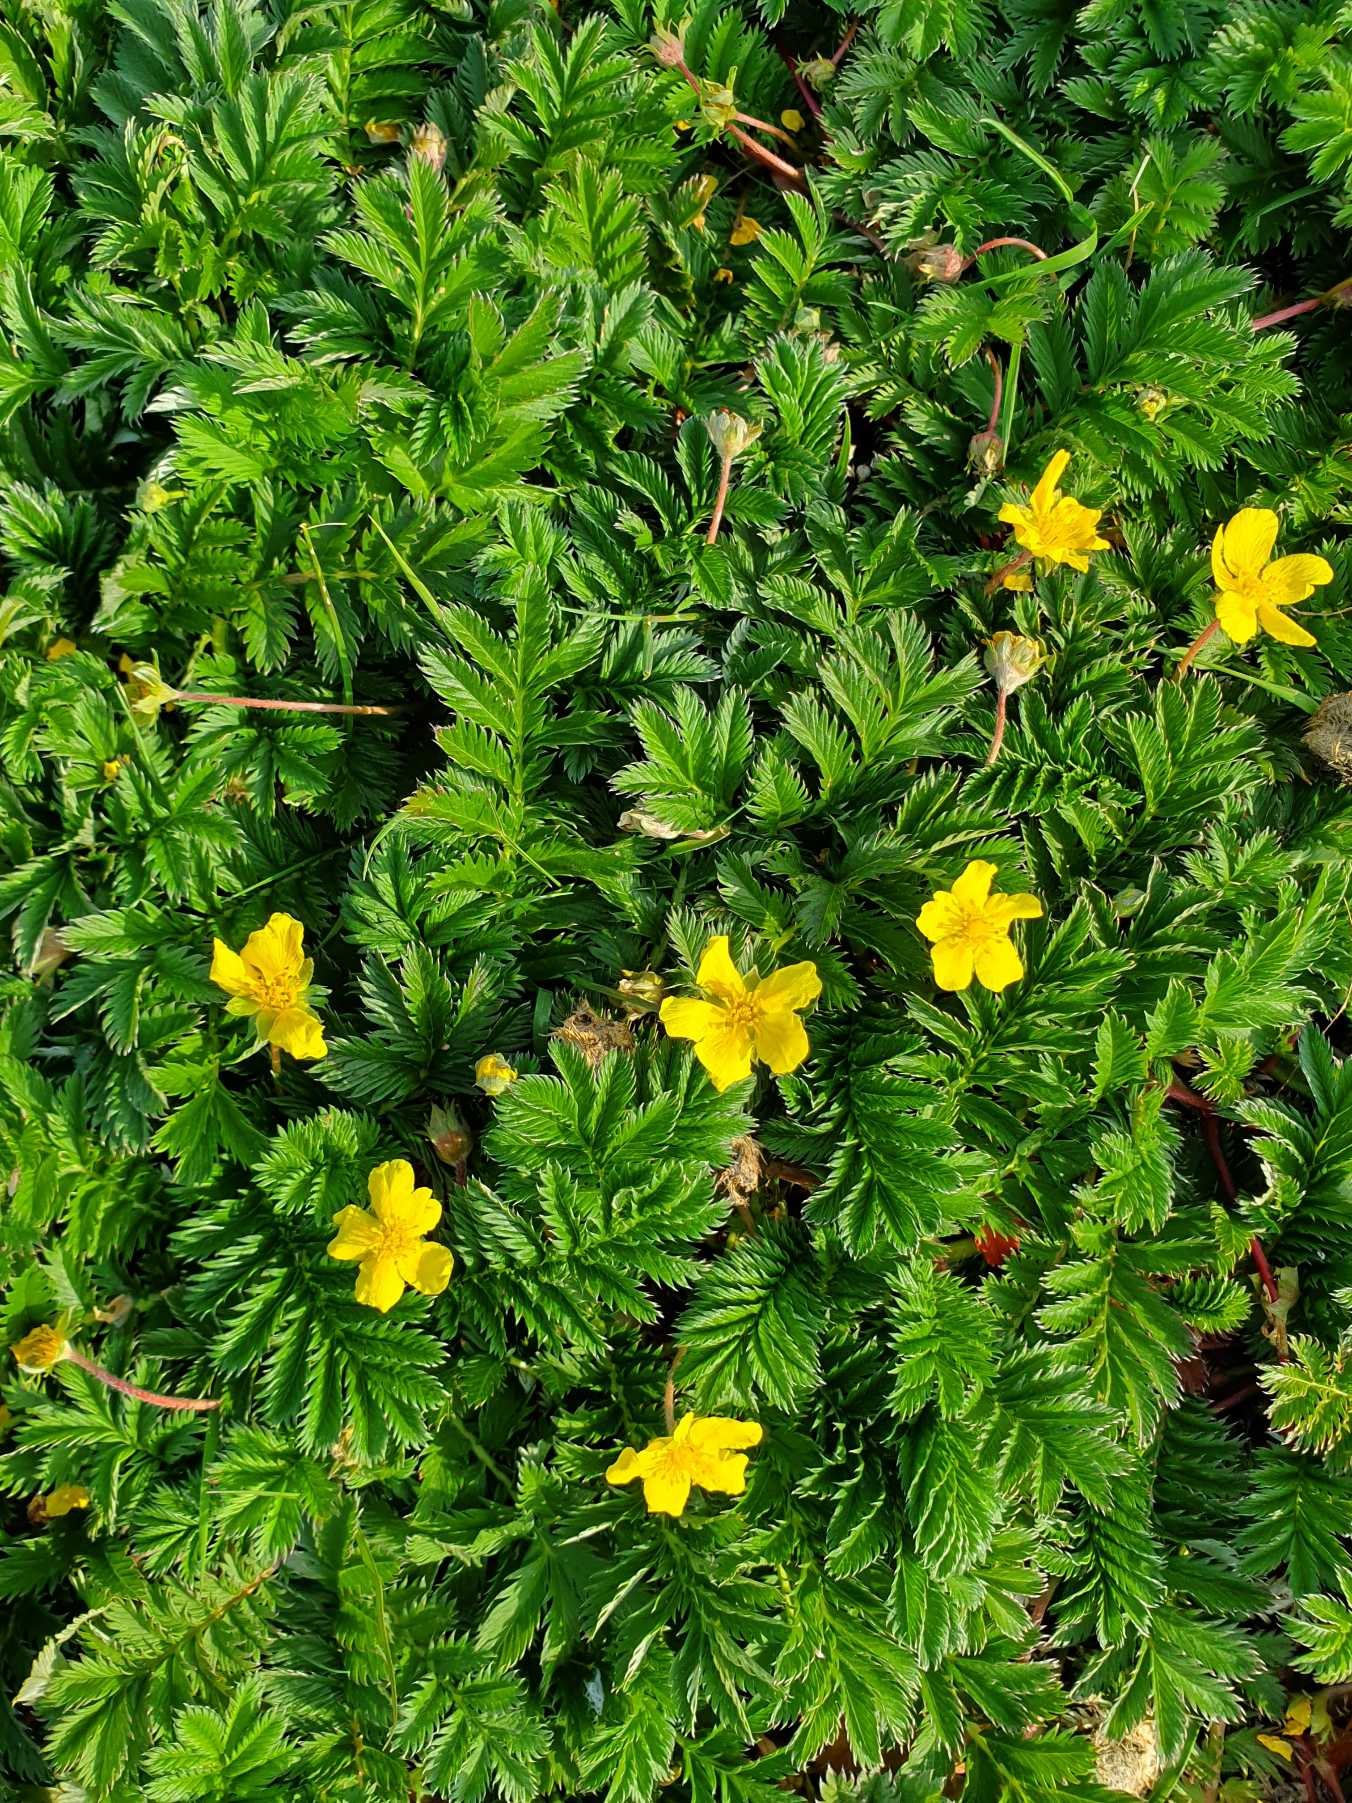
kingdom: Plantae
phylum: Tracheophyta
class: Magnoliopsida
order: Rosales
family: Rosaceae
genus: Argentina
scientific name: Argentina anserina
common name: Gåsepotentil
